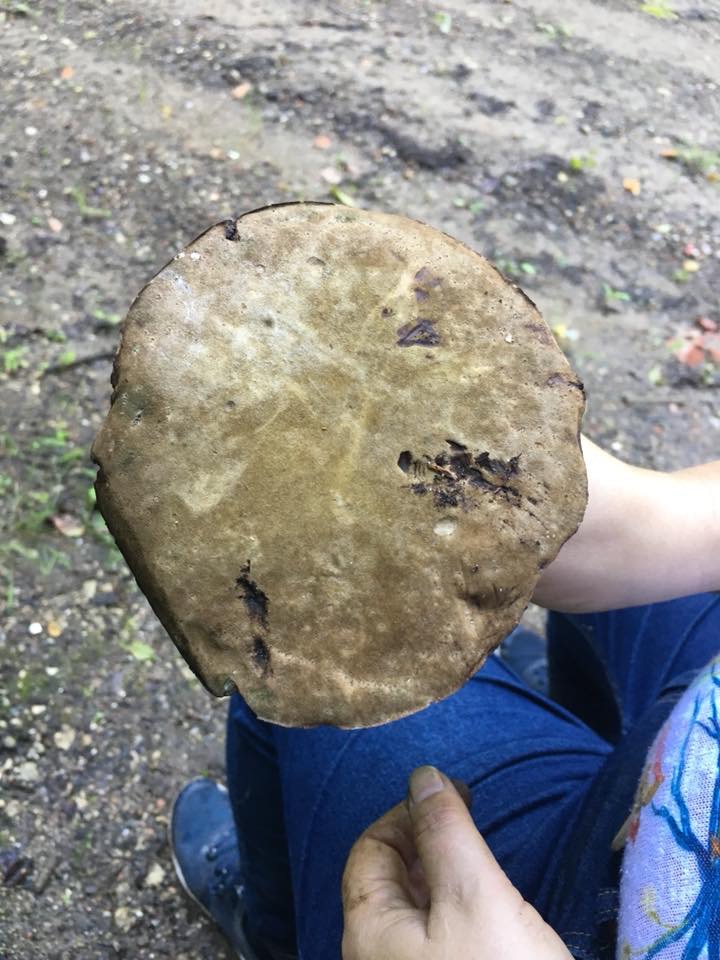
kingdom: Fungi
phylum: Basidiomycota
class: Agaricomycetes
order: Boletales
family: Boletaceae
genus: Porphyrellus
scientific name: Porphyrellus porphyrosporus
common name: sodrørhat
